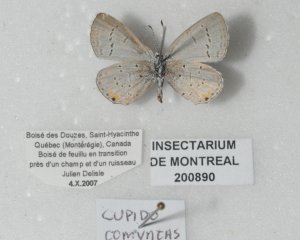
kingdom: Animalia
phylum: Arthropoda
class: Insecta
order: Lepidoptera
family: Lycaenidae
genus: Elkalyce
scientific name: Elkalyce comyntas
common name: Eastern Tailed-Blue
